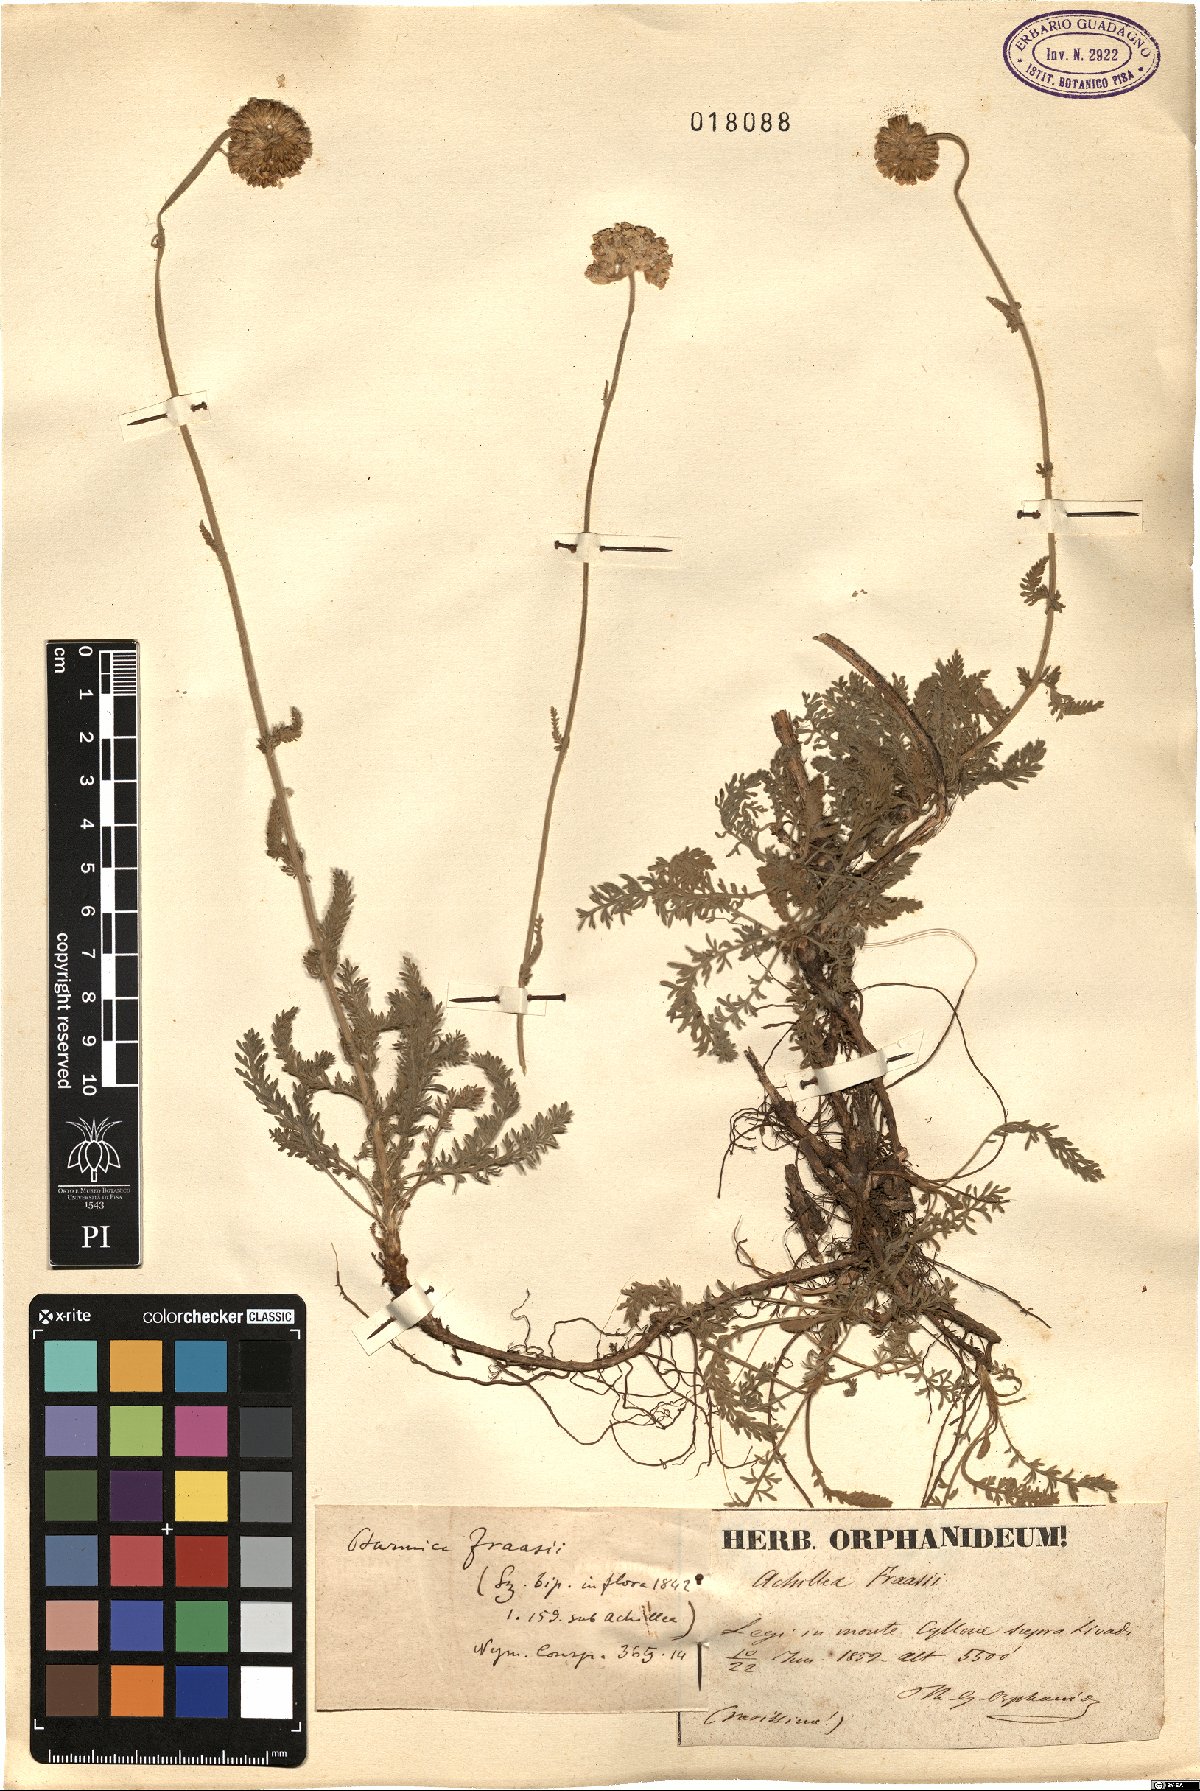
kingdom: Plantae
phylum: Tracheophyta
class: Magnoliopsida
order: Asterales
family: Asteraceae
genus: Achillea
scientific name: Achillea fraasii
